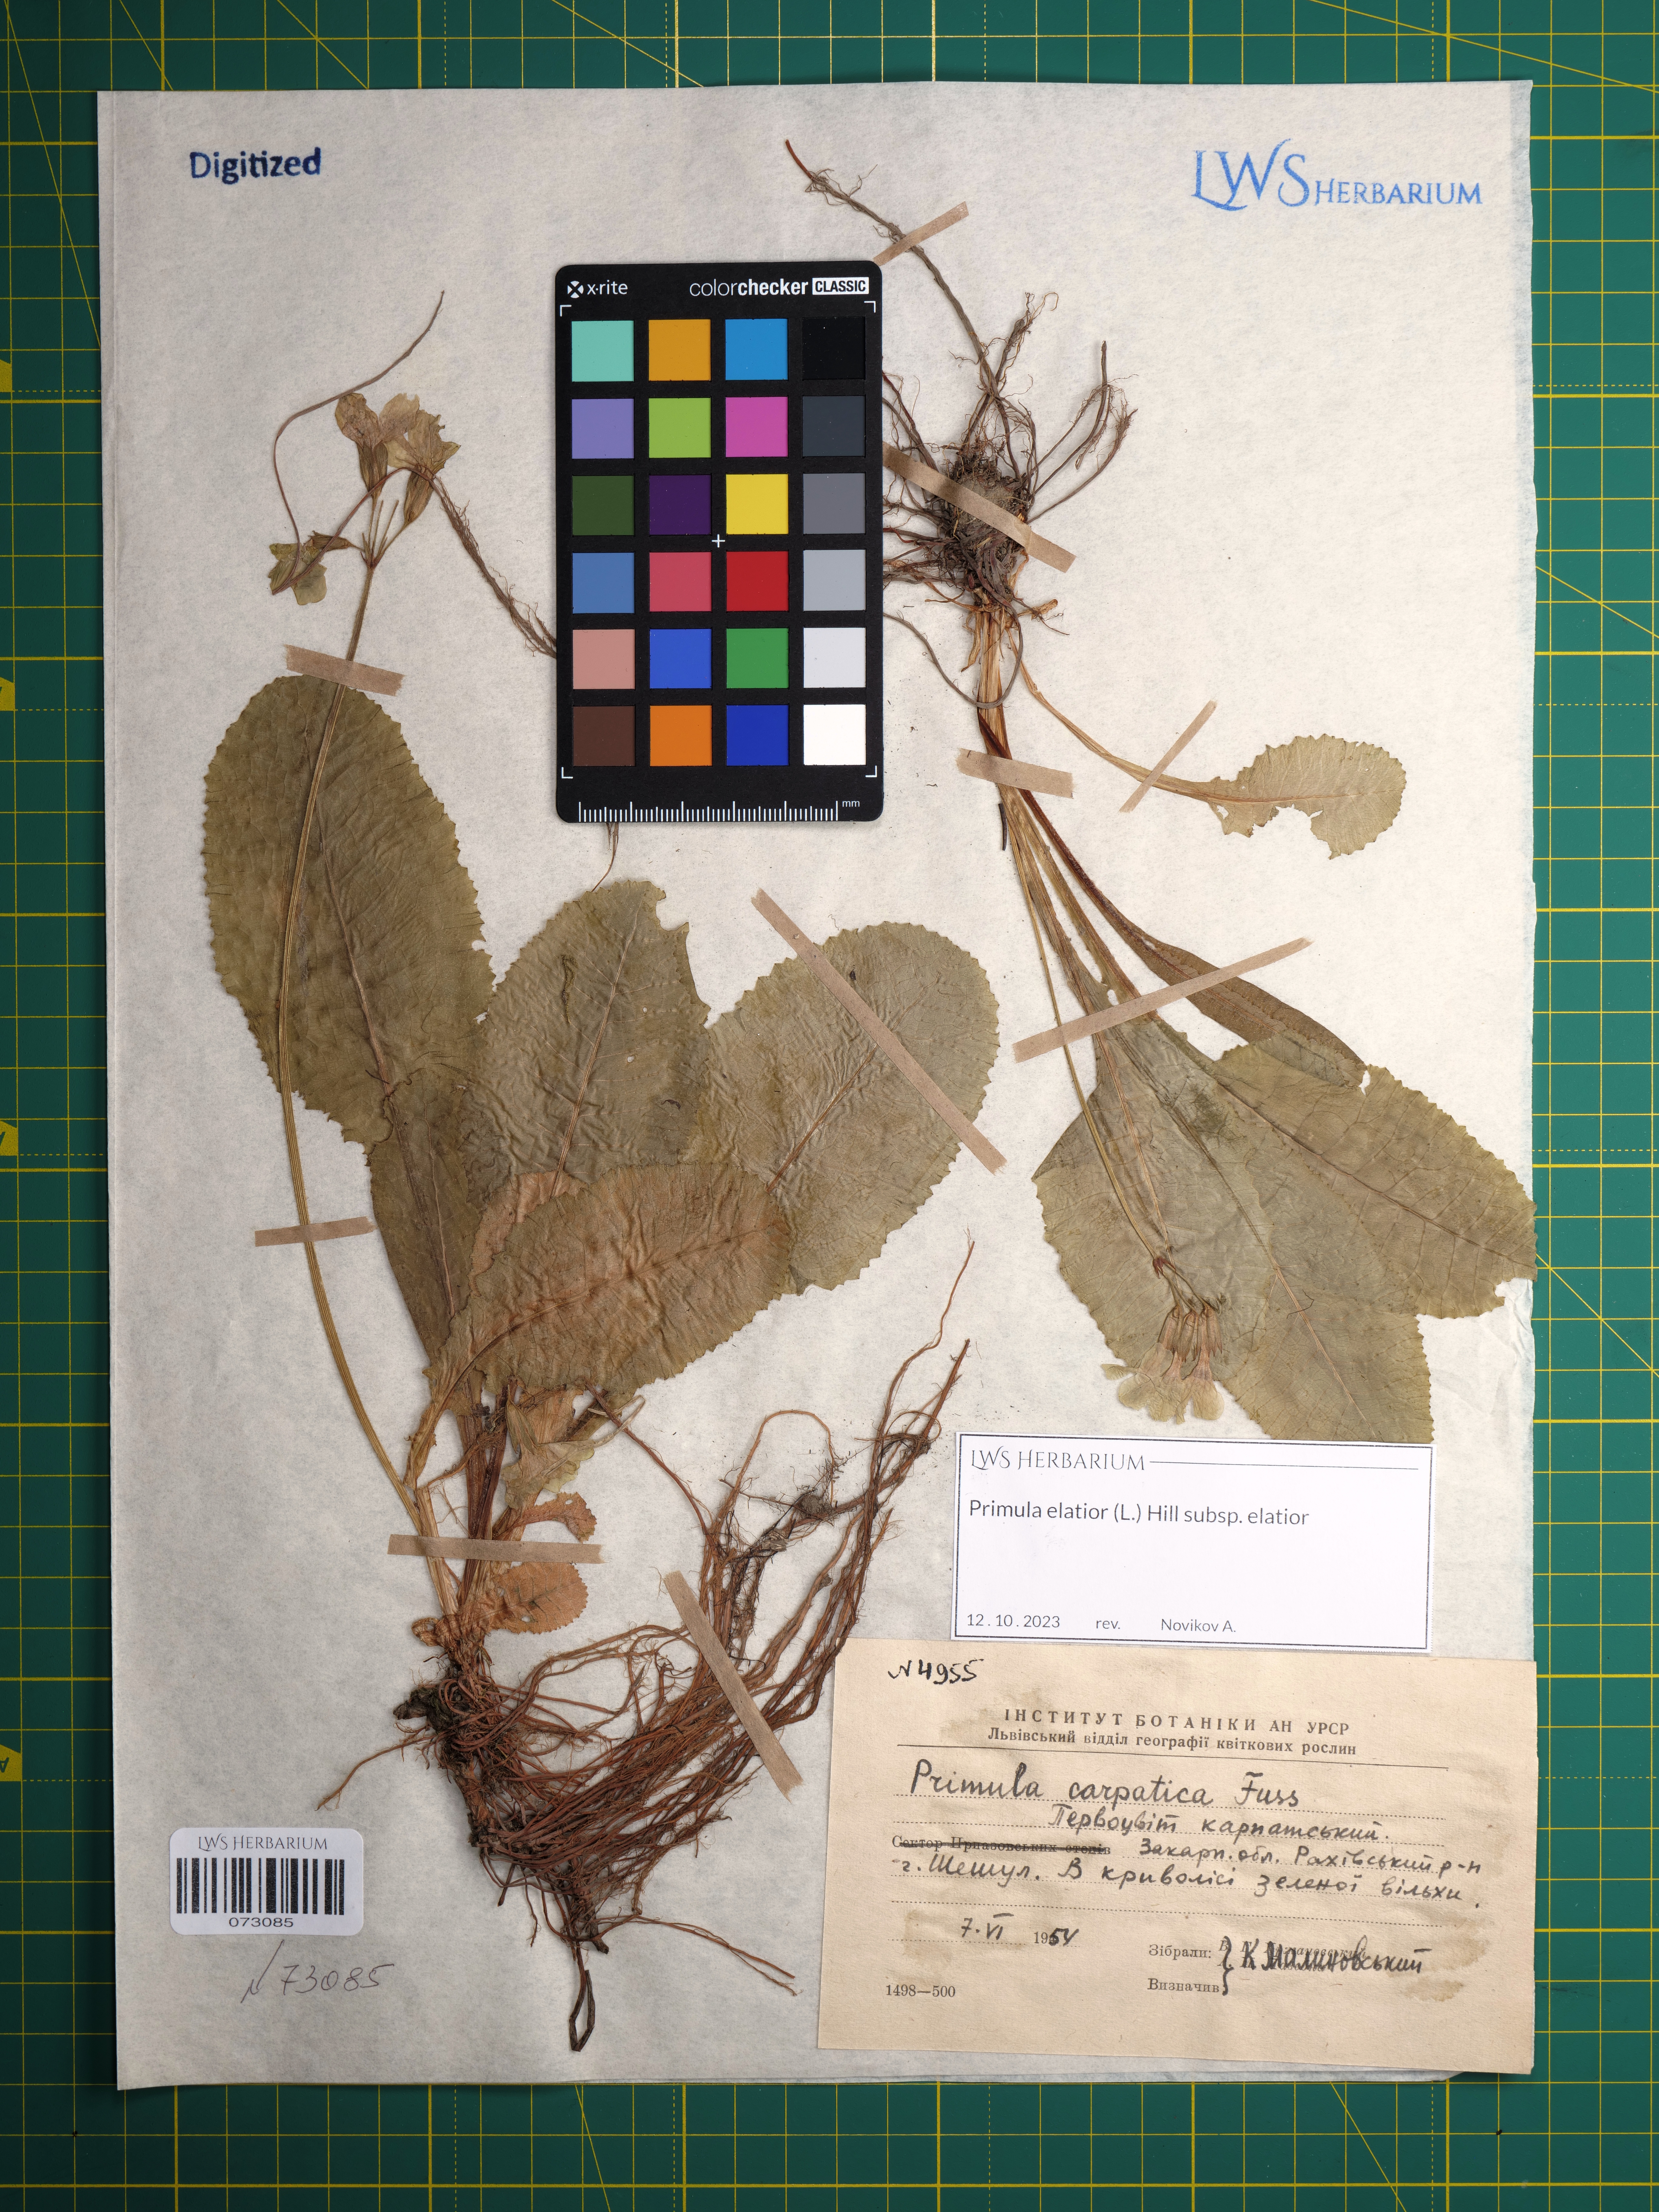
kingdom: Plantae
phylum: Tracheophyta
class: Magnoliopsida
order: Ericales
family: Primulaceae
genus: Primula
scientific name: Primula elatior
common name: Oxlip
